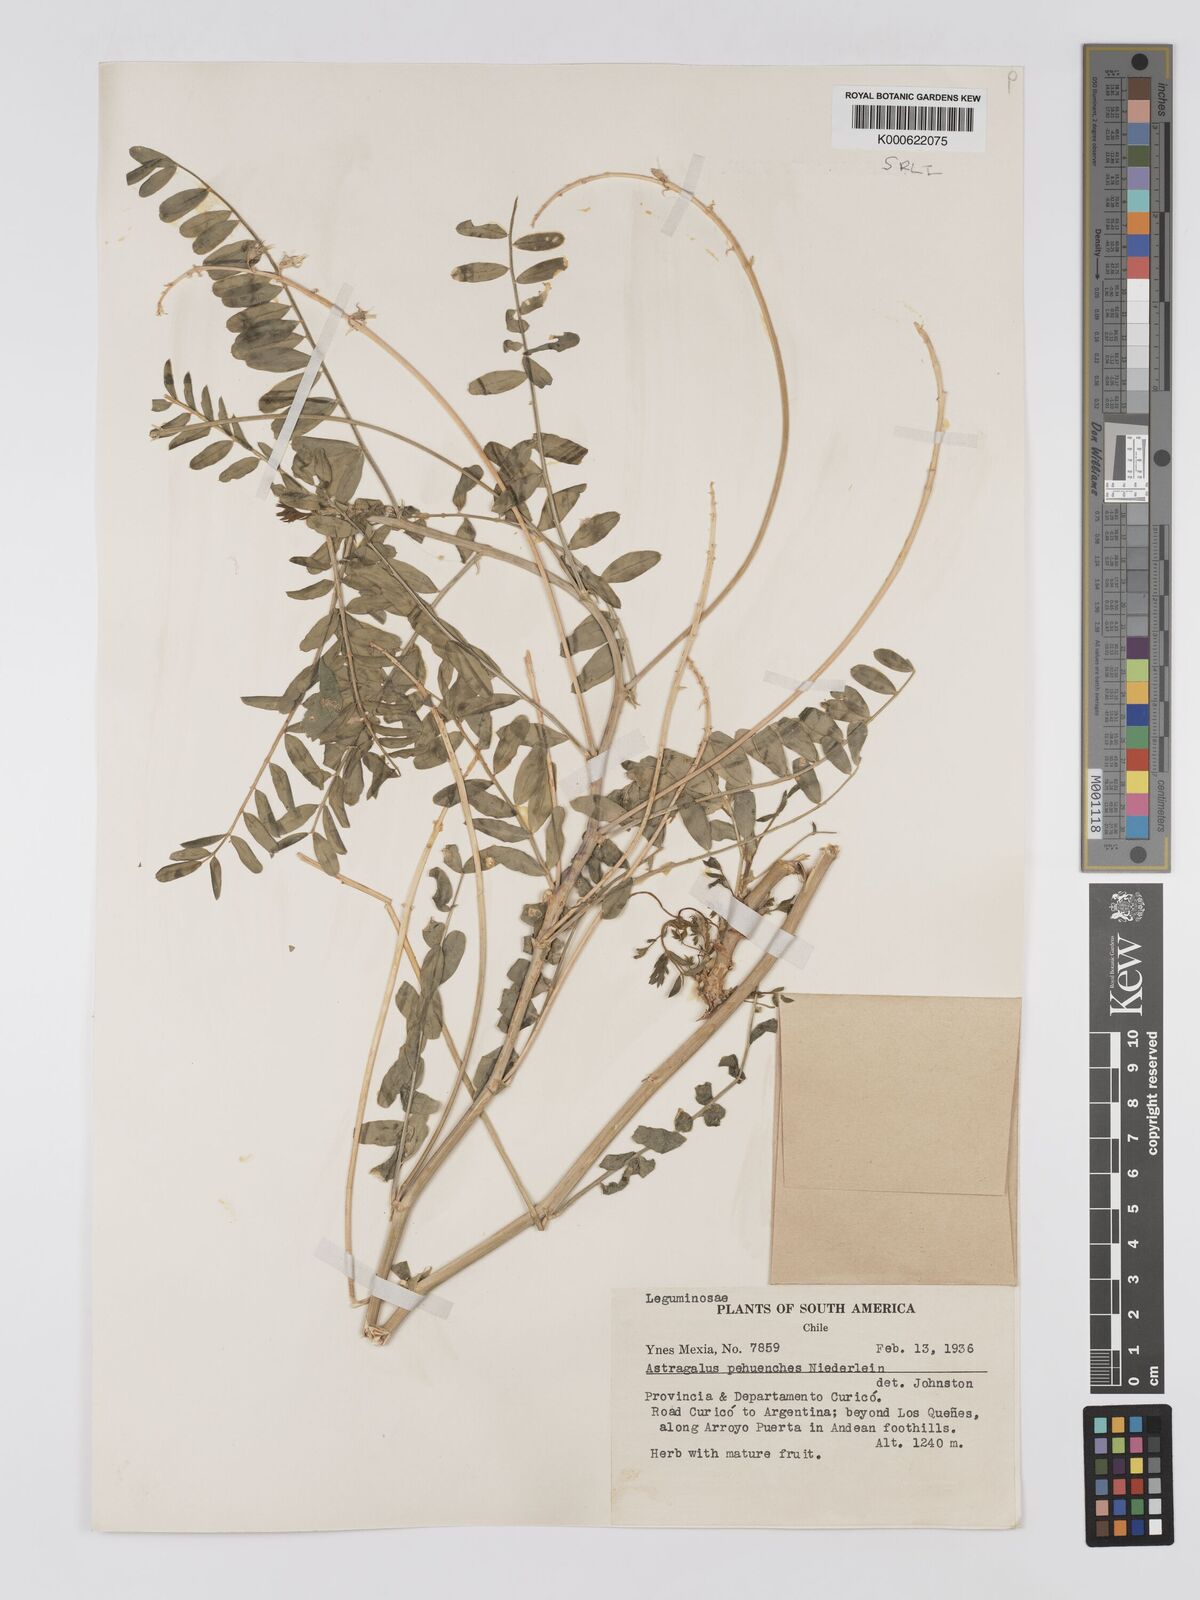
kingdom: Plantae
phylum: Tracheophyta
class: Magnoliopsida
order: Fabales
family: Fabaceae
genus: Astragalus
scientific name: Astragalus pehuenches
